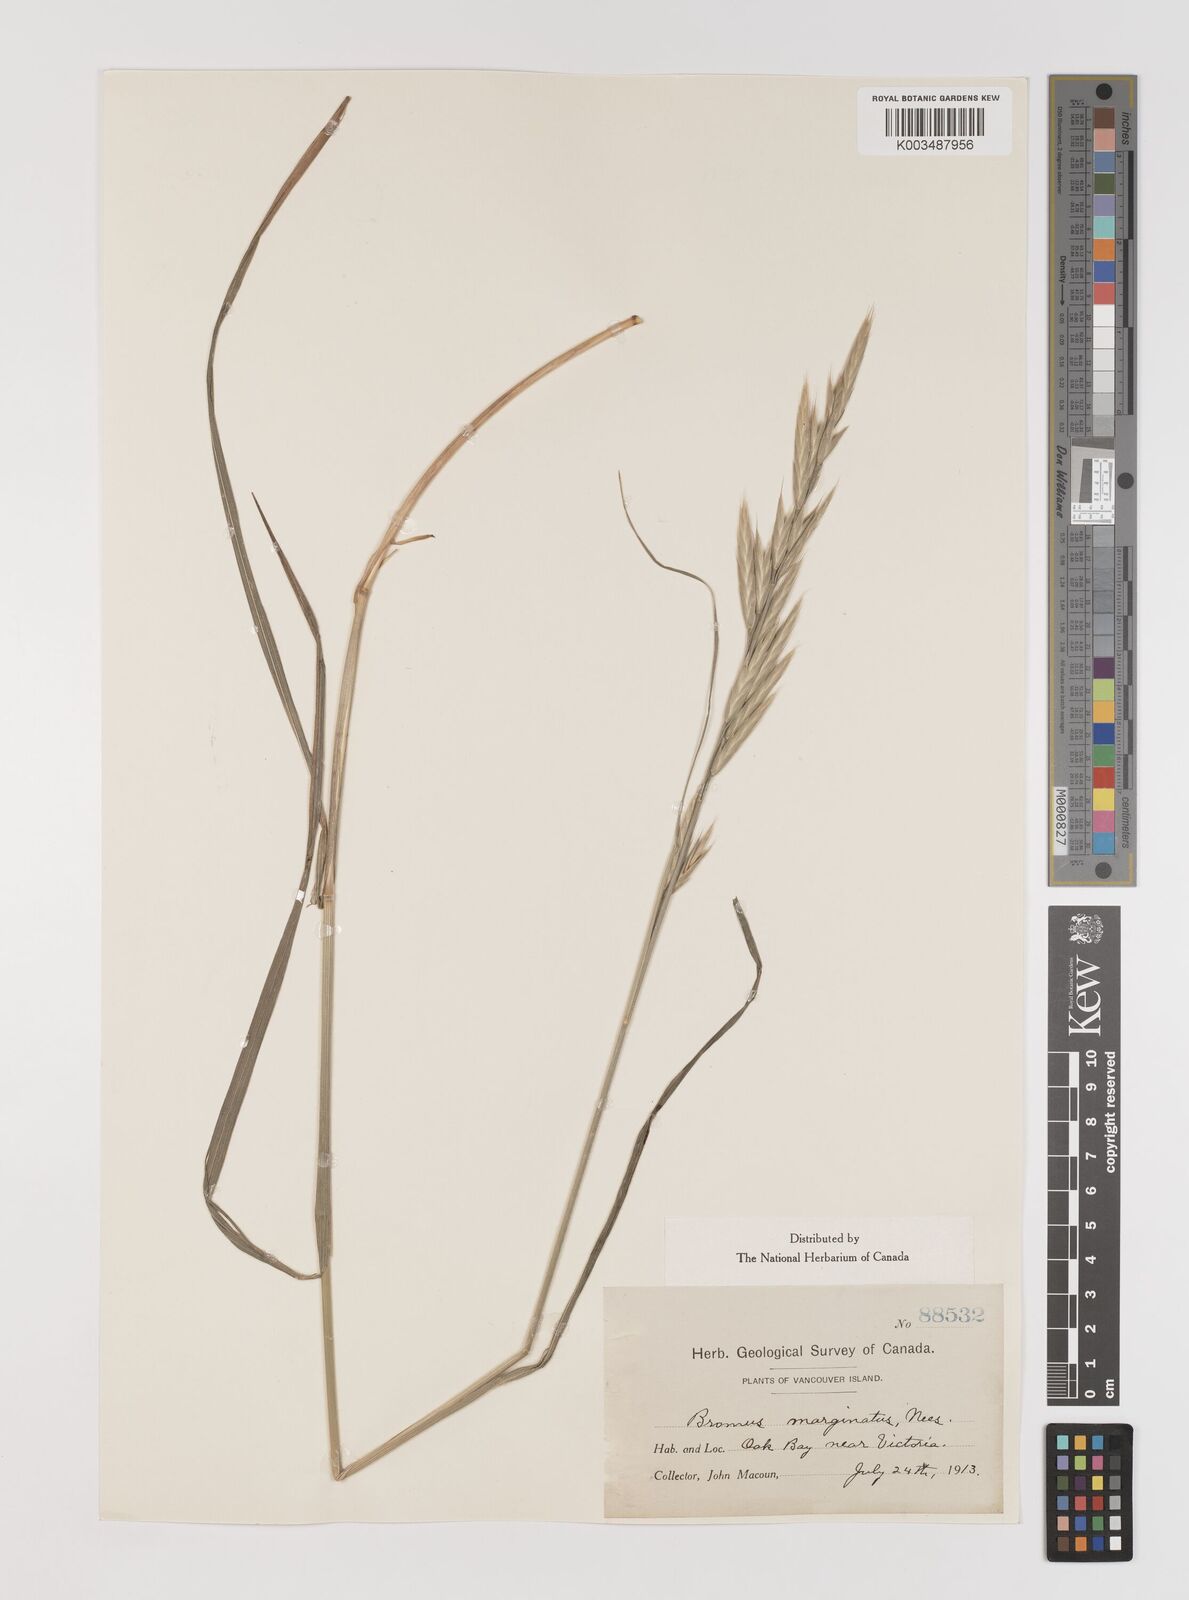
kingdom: Plantae
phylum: Tracheophyta
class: Liliopsida
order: Poales
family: Poaceae
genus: Bromus
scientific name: Bromus marginatus
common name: Western brome
